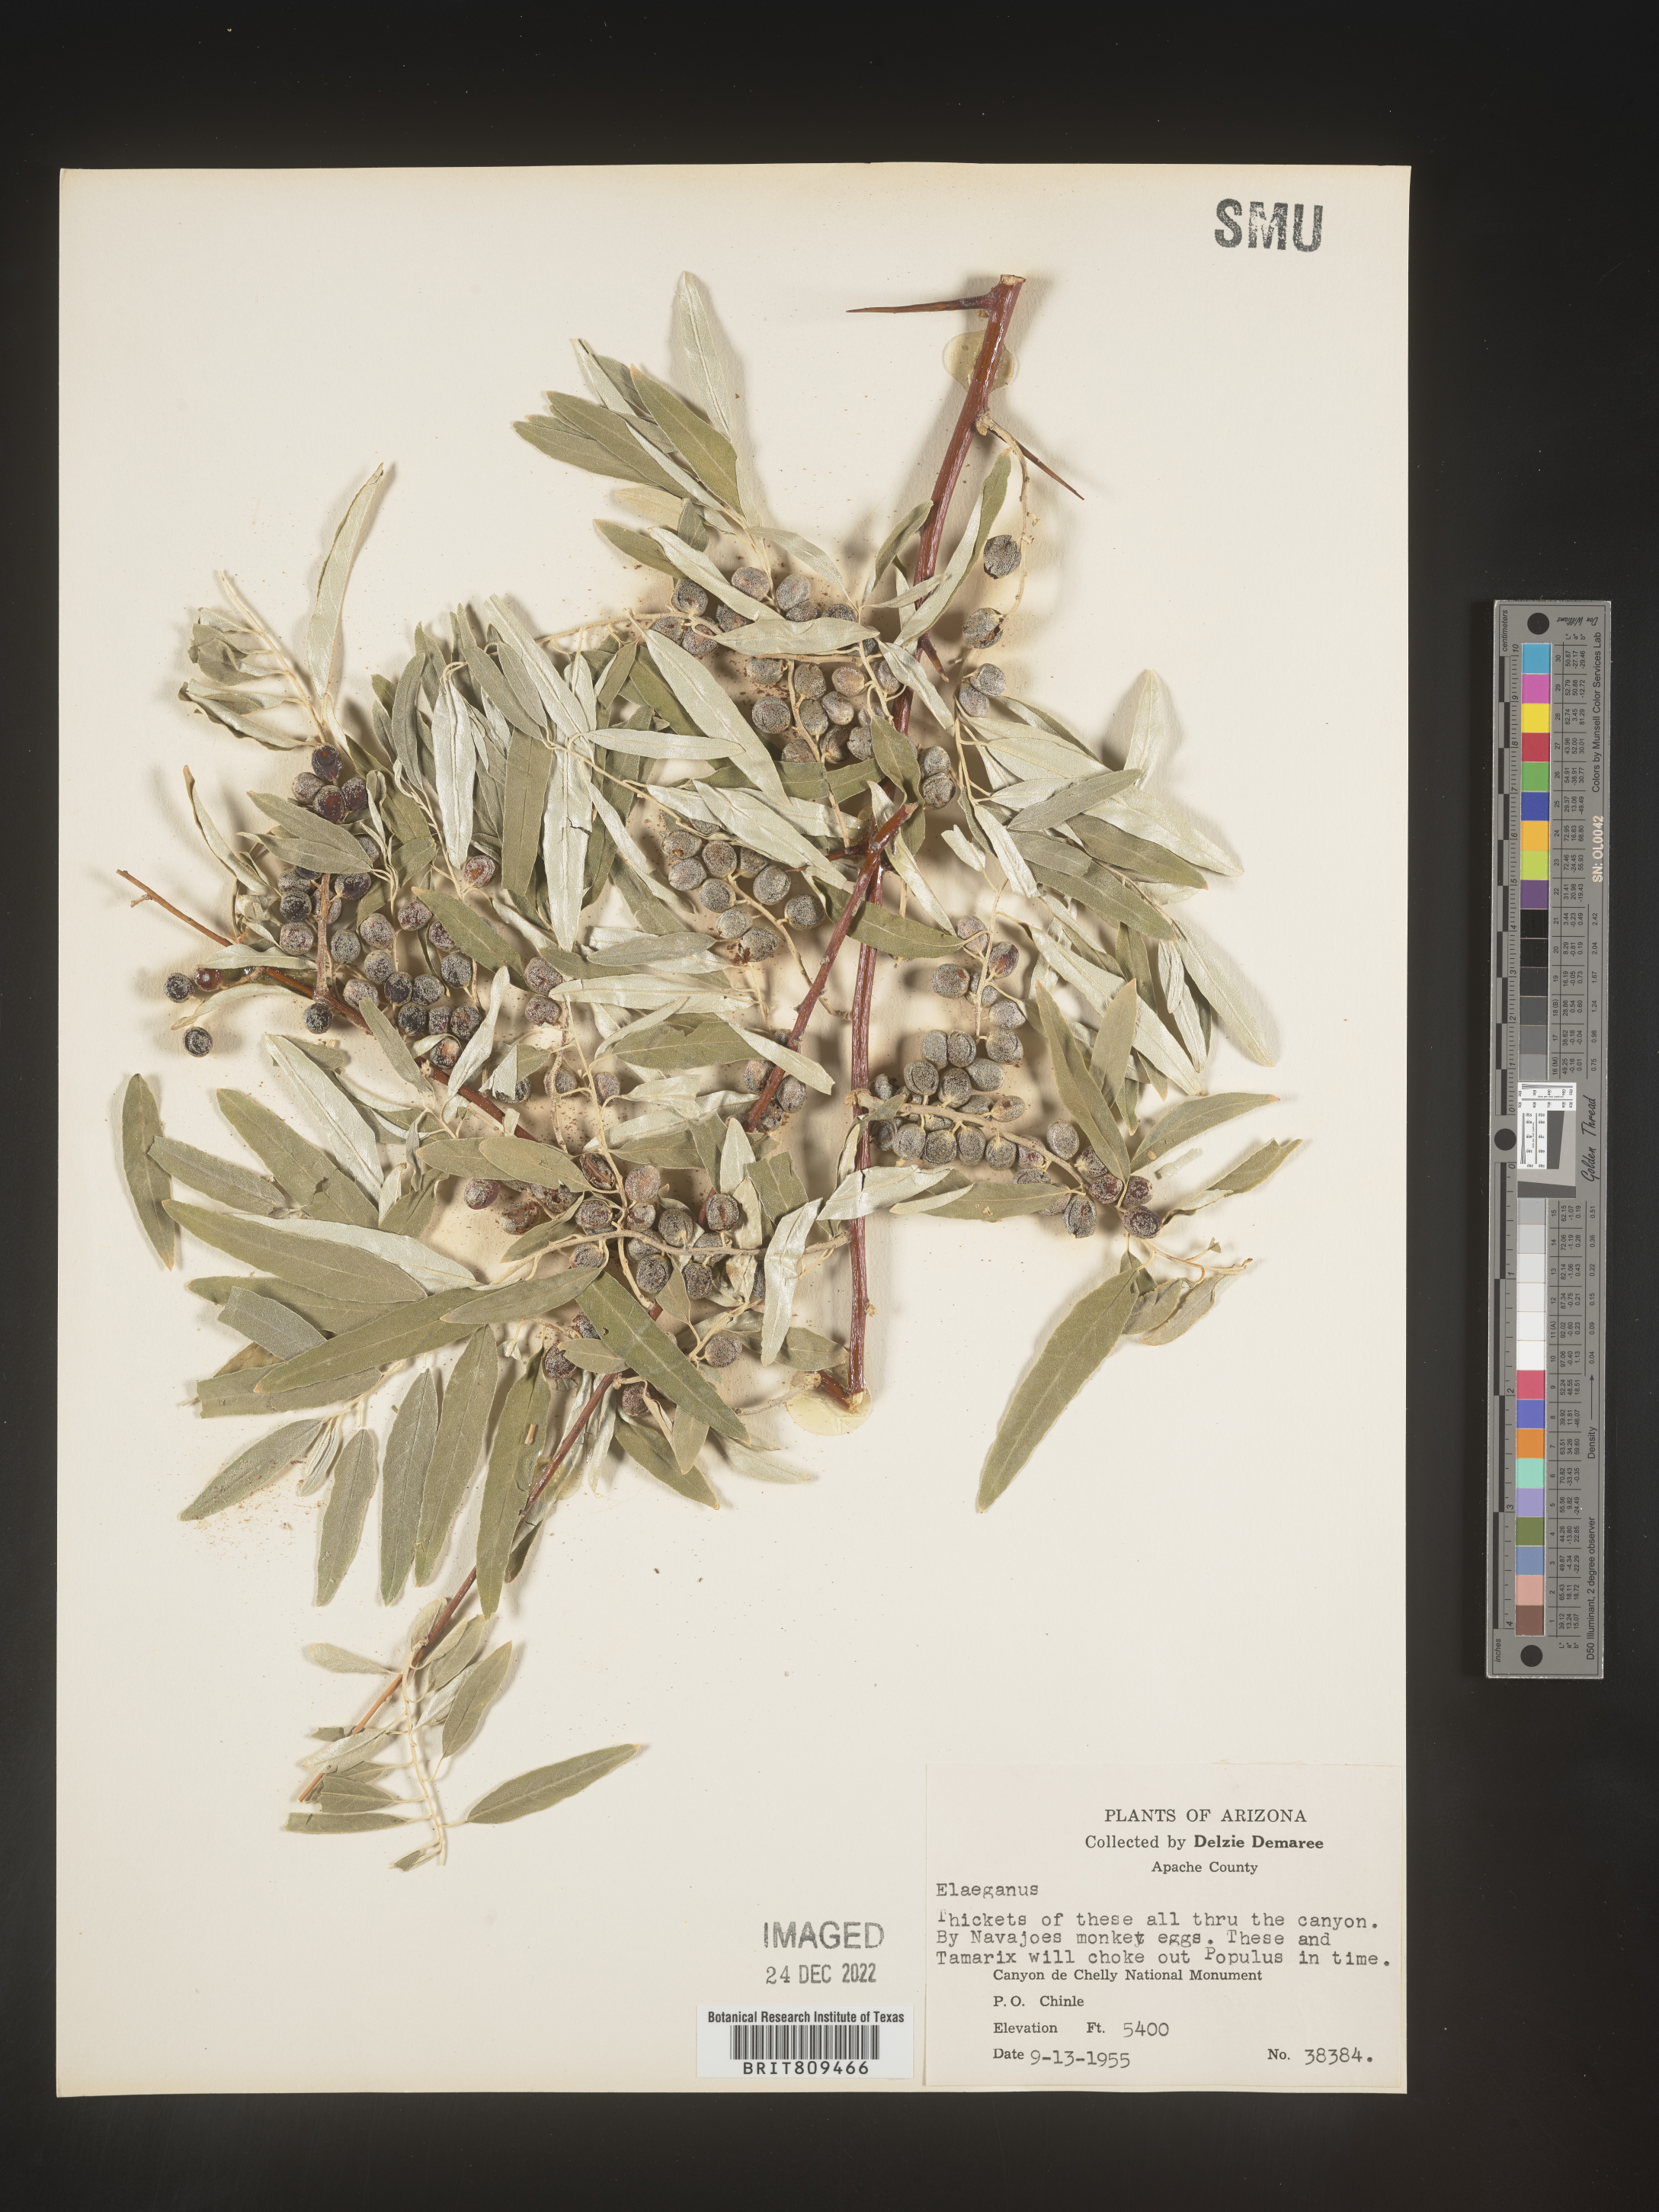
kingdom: Plantae
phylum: Tracheophyta
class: Magnoliopsida
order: Rosales
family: Elaeagnaceae
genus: Elaeagnus
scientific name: Elaeagnus
